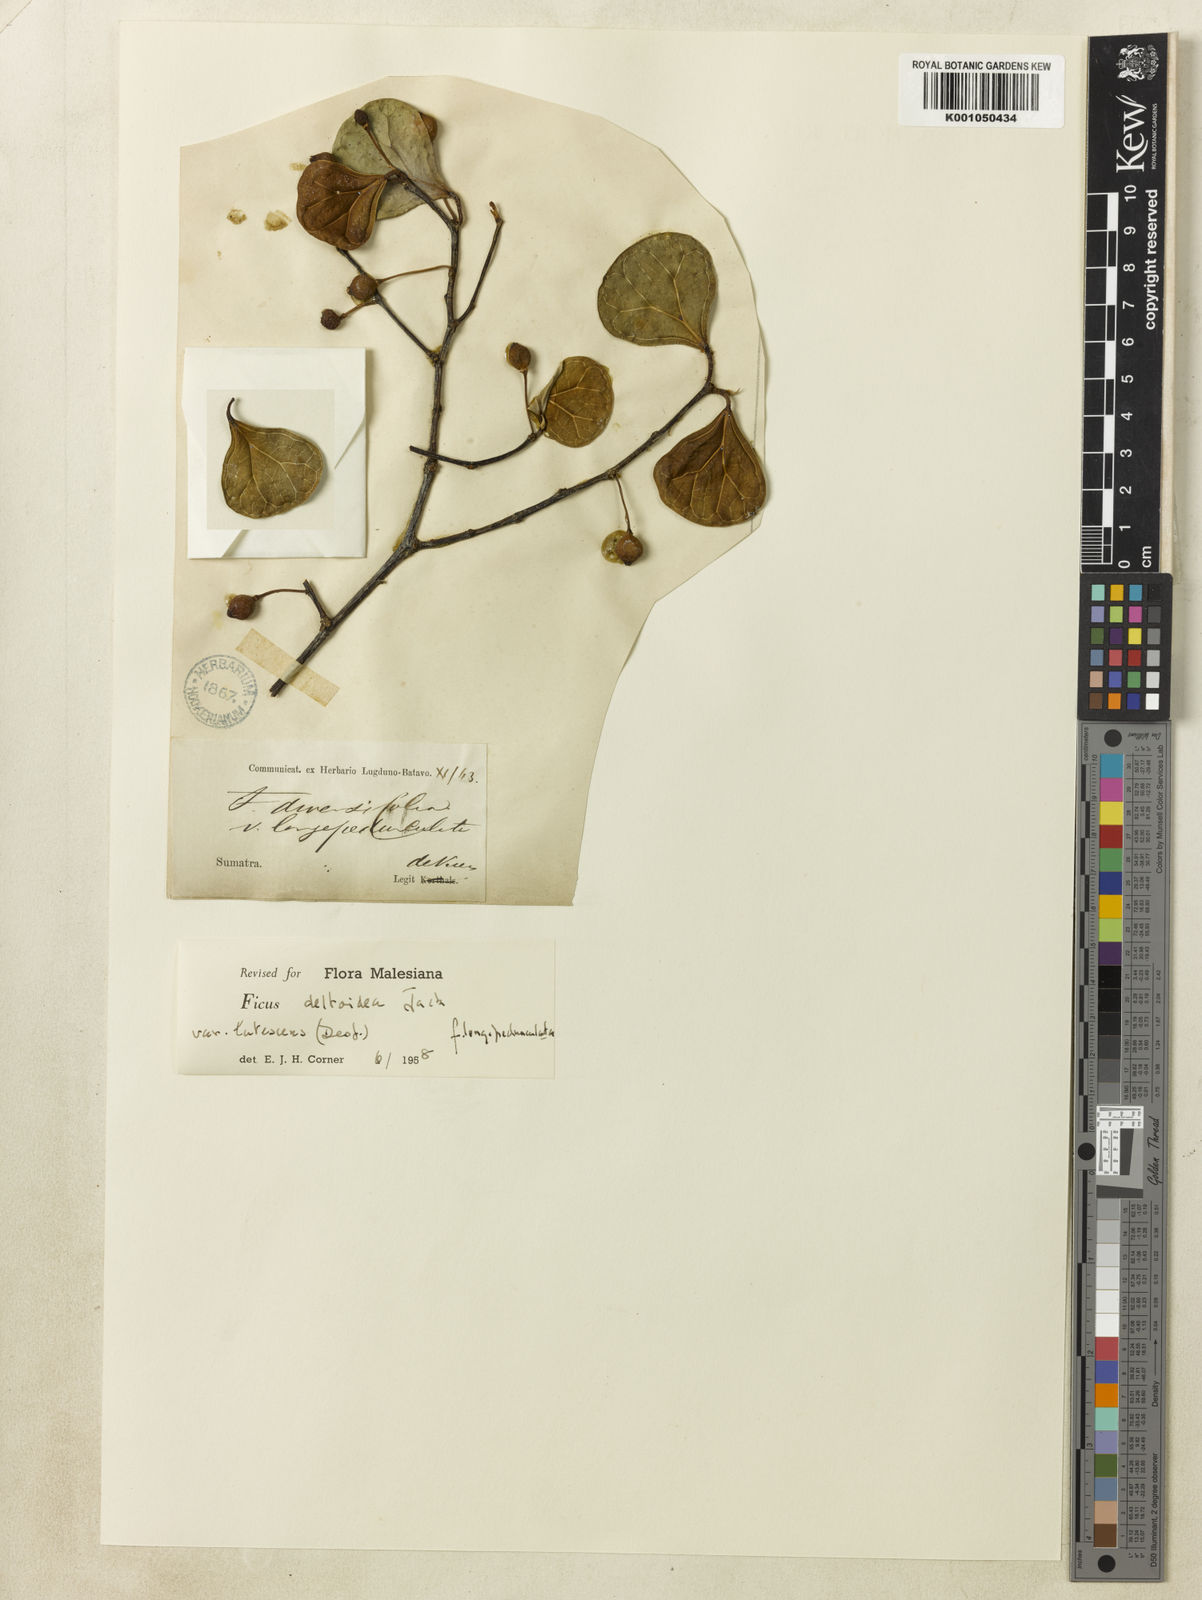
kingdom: Plantae
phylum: Tracheophyta
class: Magnoliopsida
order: Rosales
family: Moraceae
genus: Ficus
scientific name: Ficus deltoidea
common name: Mistletoe fig
